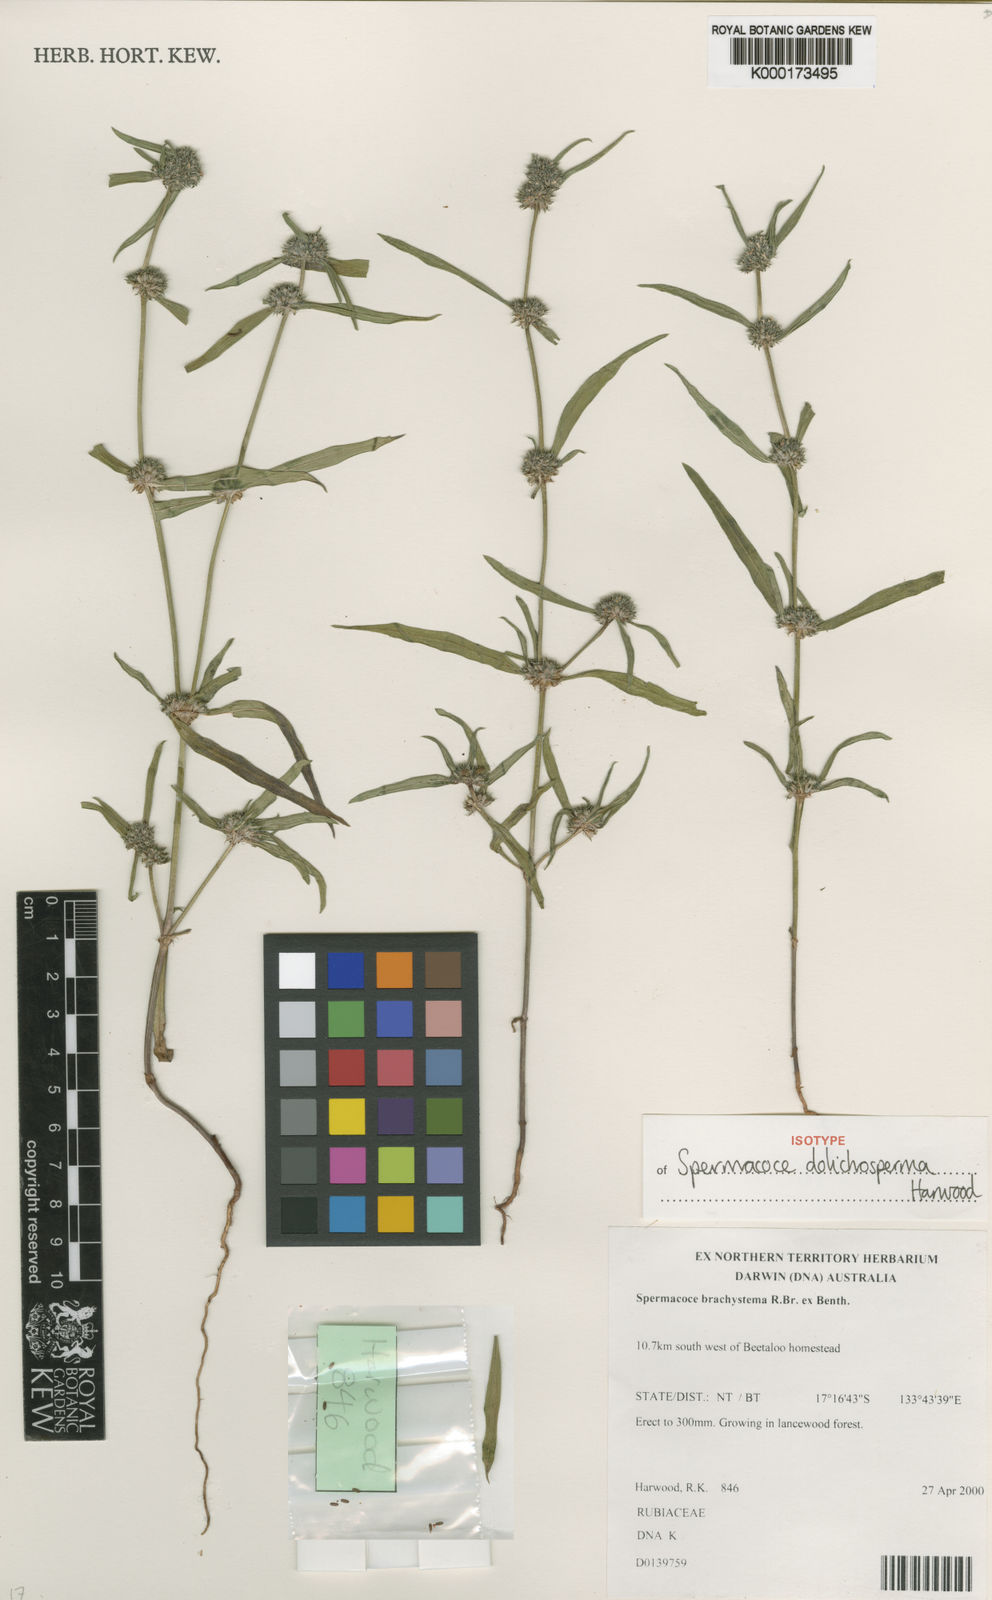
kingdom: Plantae
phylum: Tracheophyta
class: Magnoliopsida
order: Gentianales
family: Rubiaceae
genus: Spermacoce
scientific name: Spermacoce dolichosperma
